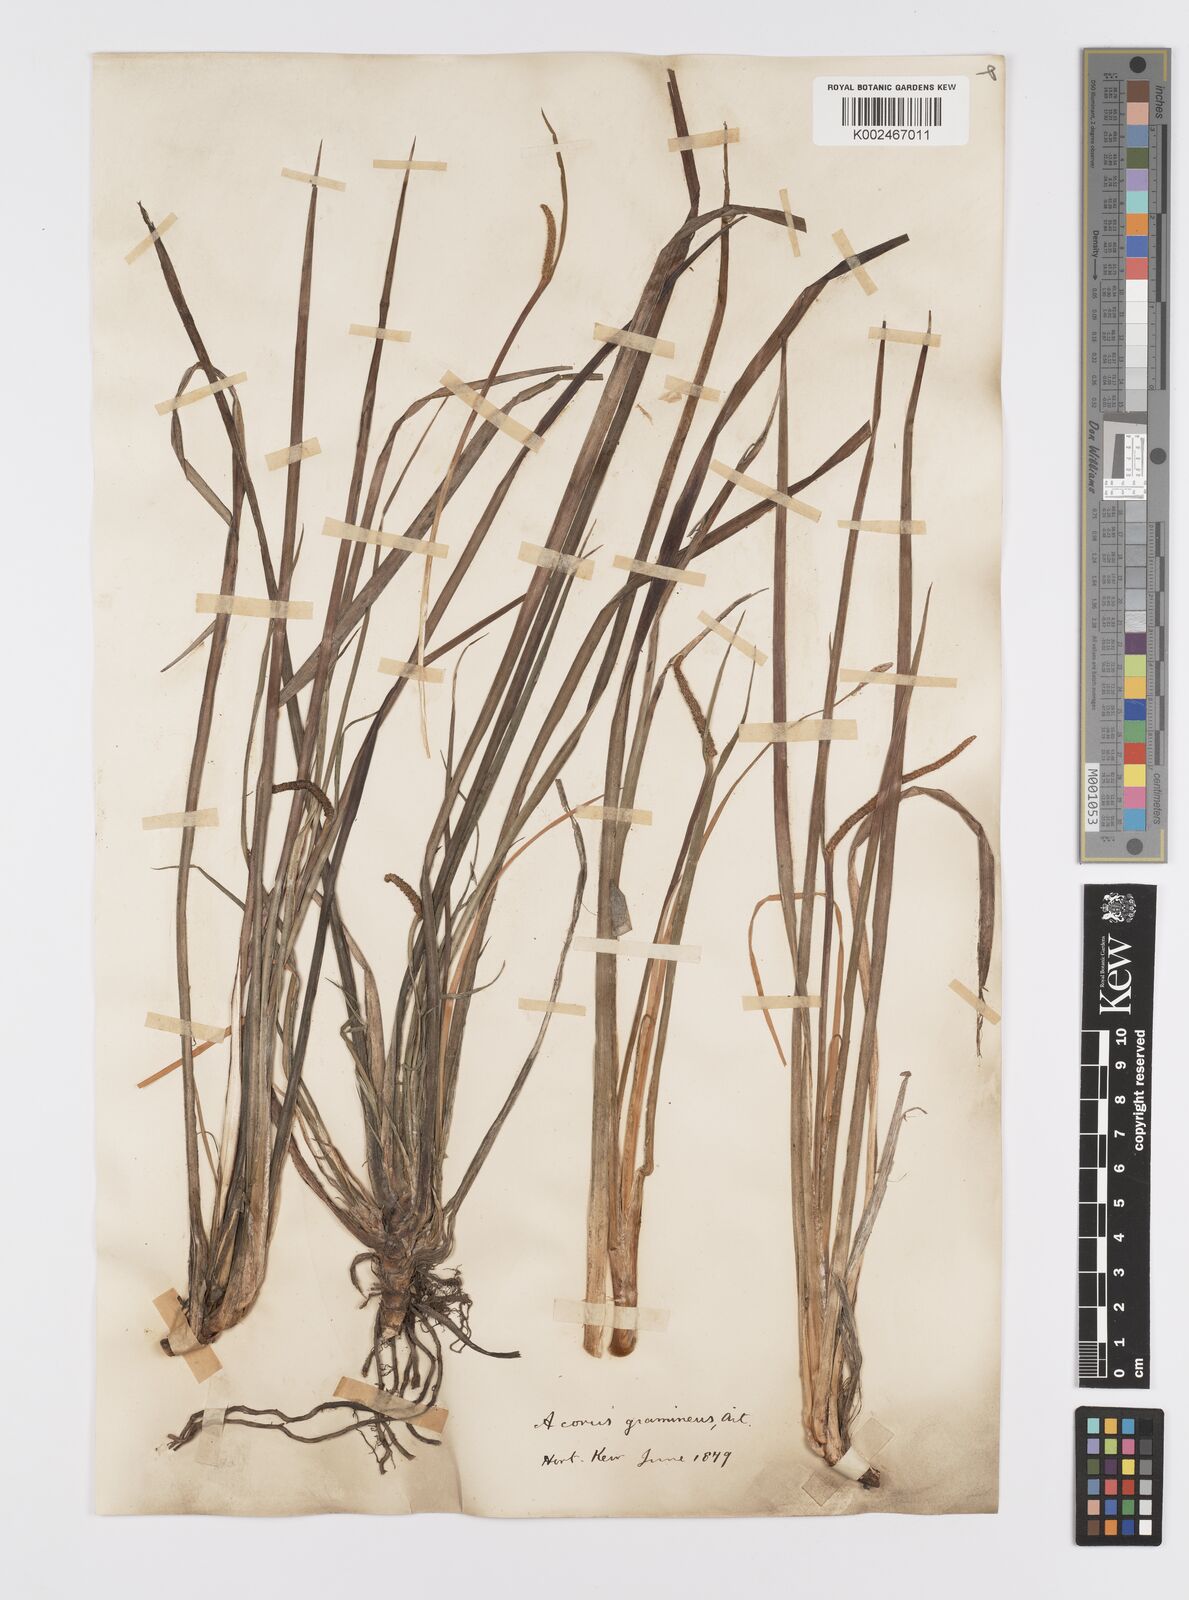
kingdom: Plantae
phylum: Tracheophyta
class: Liliopsida
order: Acorales
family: Acoraceae
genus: Acorus
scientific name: Acorus gramineus
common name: Slender sweet-flag
